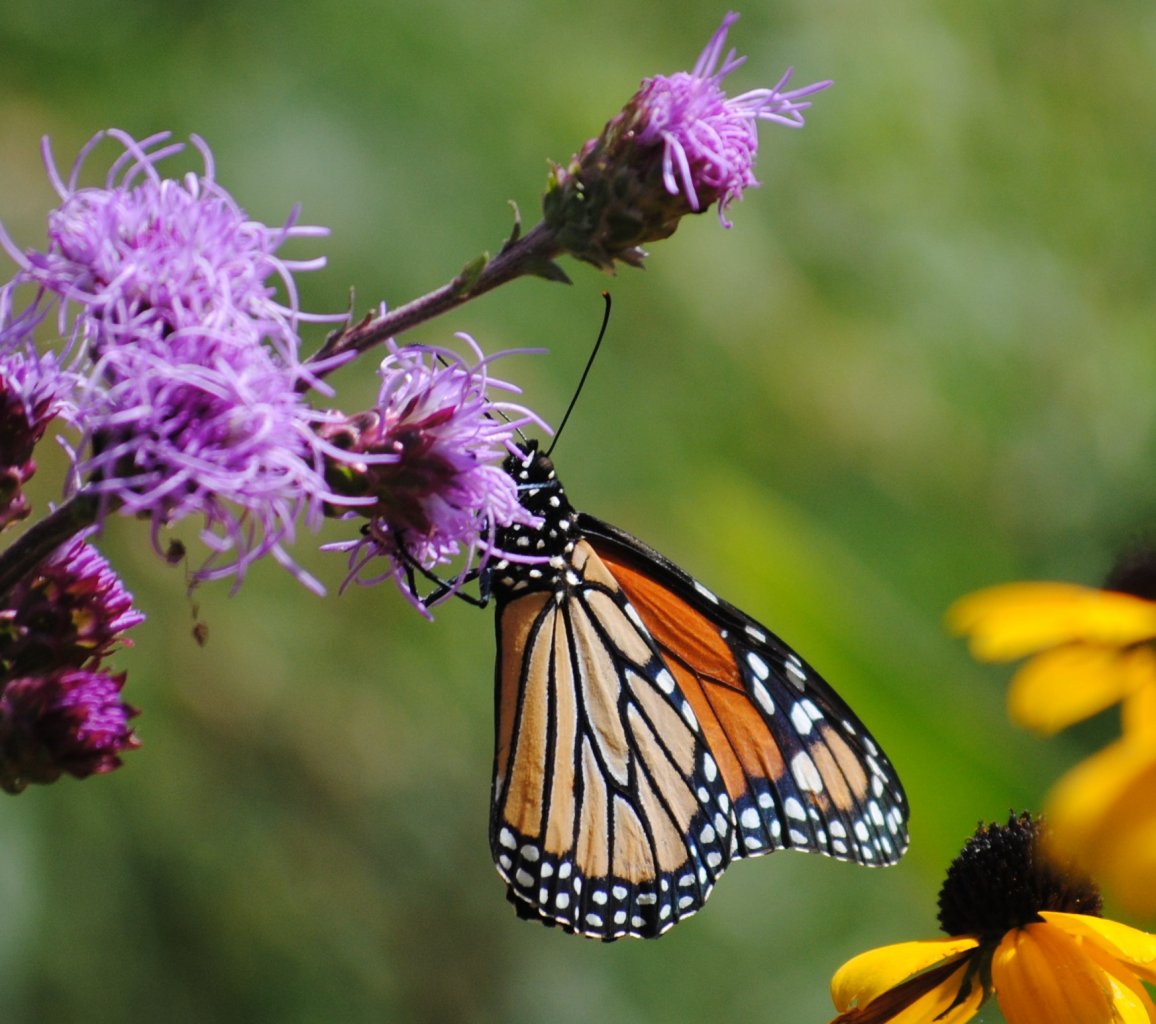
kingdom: Animalia
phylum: Arthropoda
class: Insecta
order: Lepidoptera
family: Nymphalidae
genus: Danaus
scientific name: Danaus plexippus
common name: Monarch
